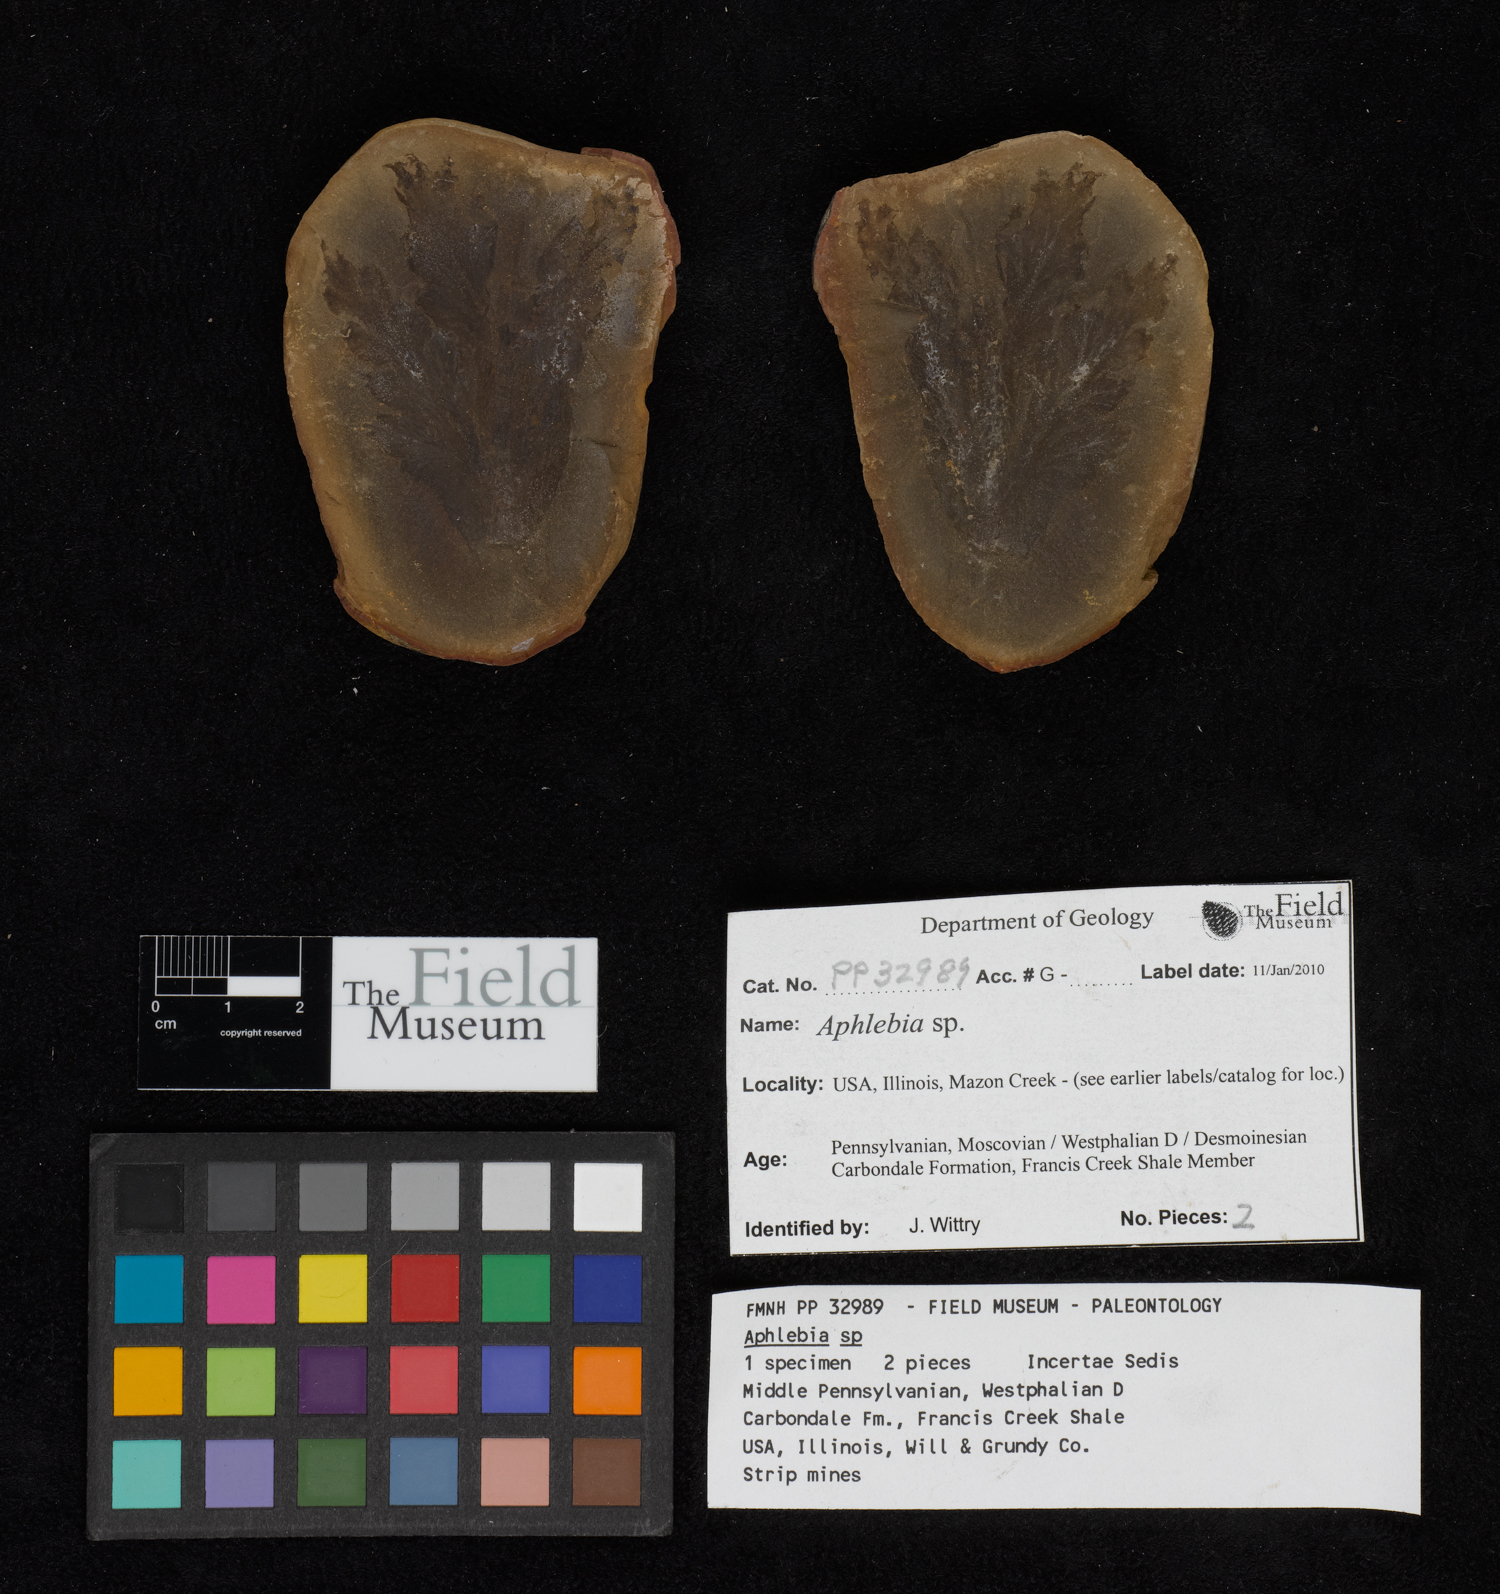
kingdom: Plantae
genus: Rhacophyllum
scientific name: Rhacophyllum
